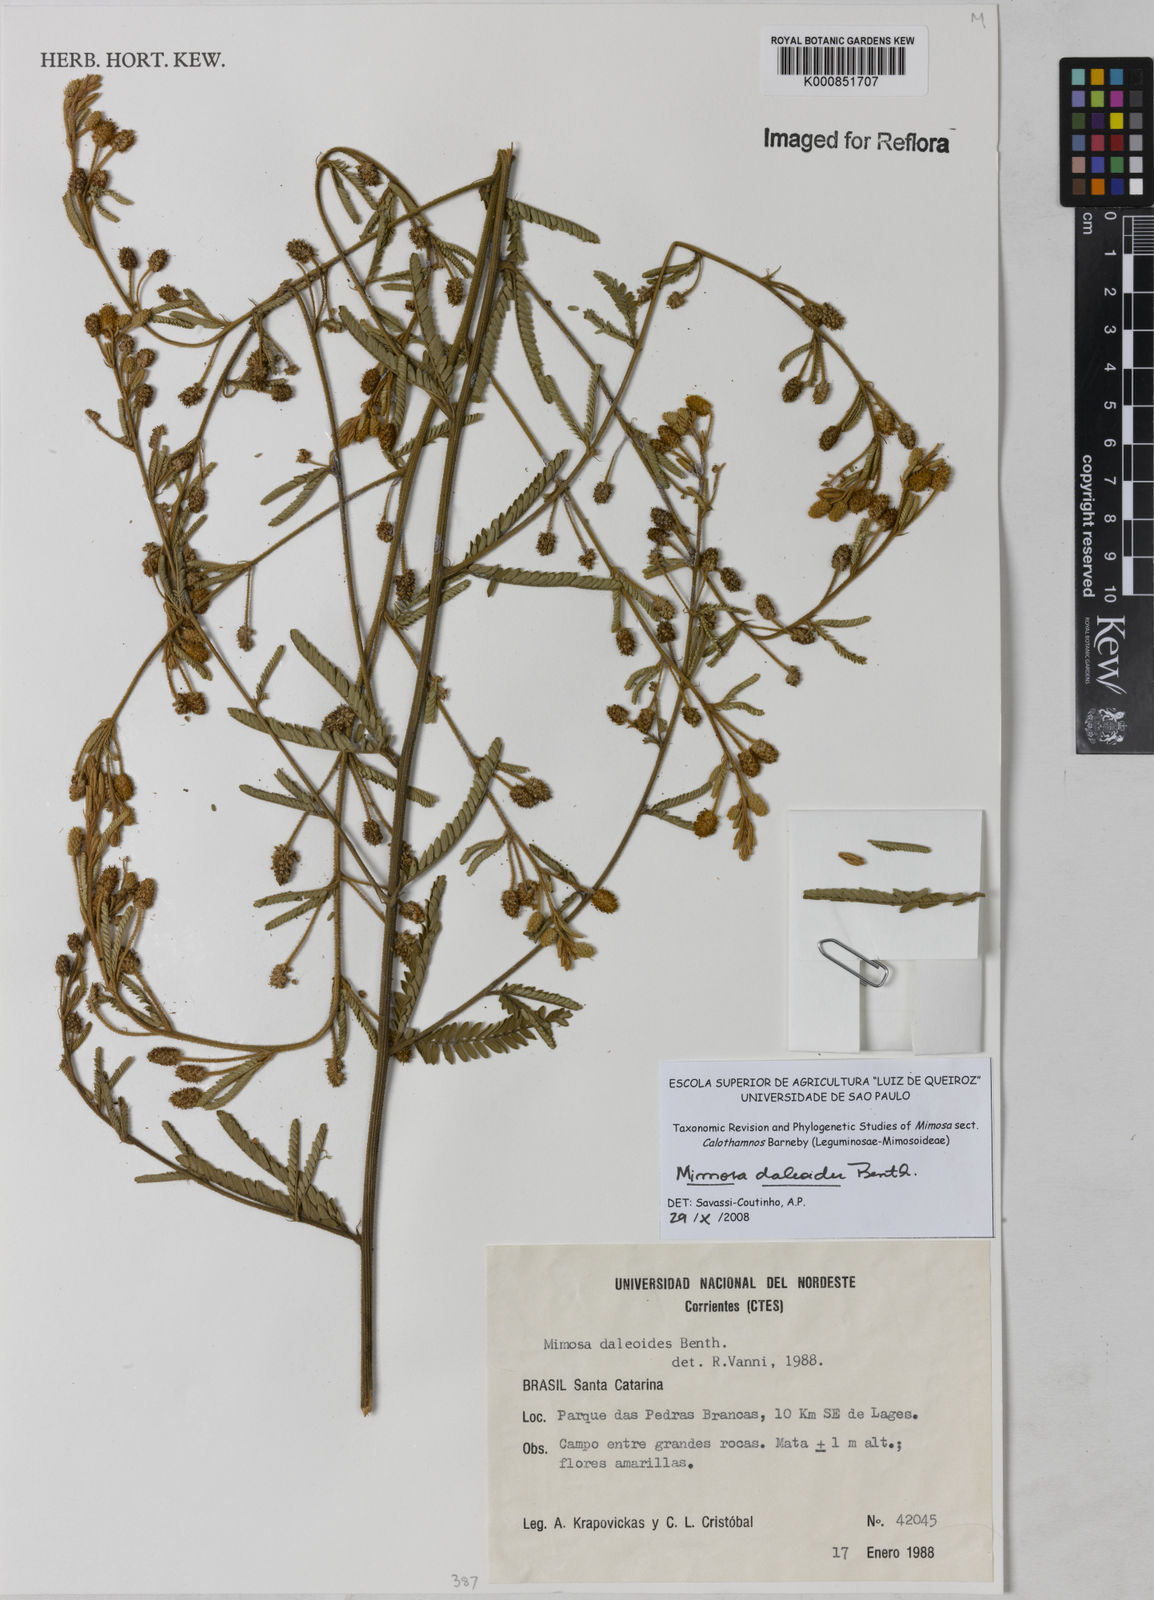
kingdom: Plantae
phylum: Tracheophyta
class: Magnoliopsida
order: Fabales
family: Fabaceae
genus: Mimosa
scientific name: Mimosa daleoides
